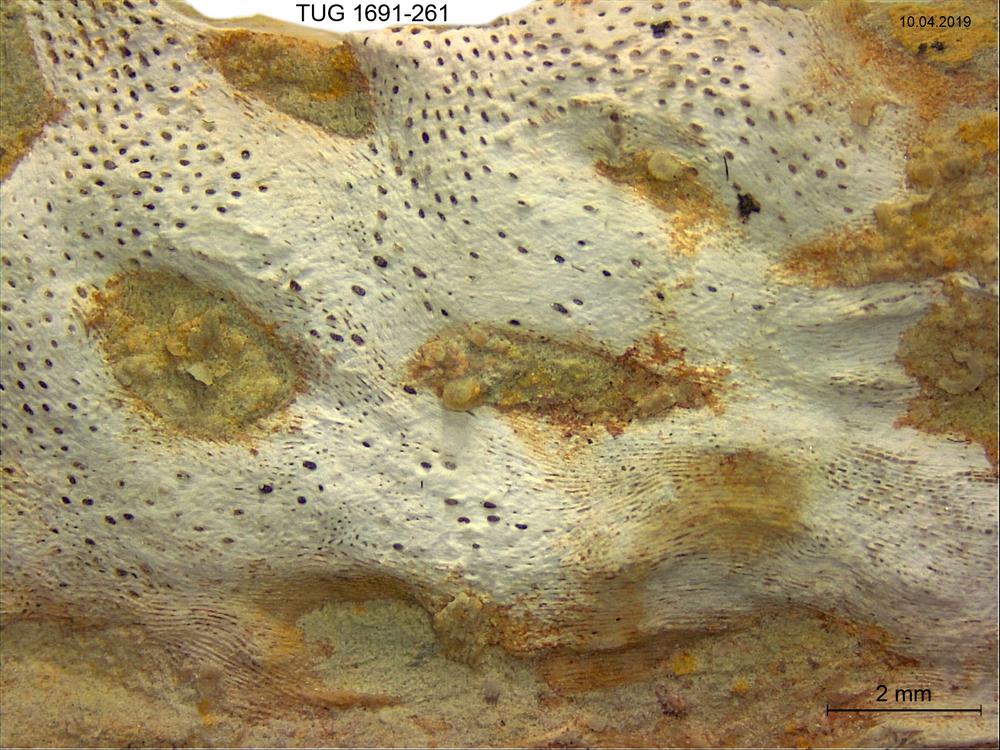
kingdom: Animalia
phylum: Bryozoa
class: Stenolaemata
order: Cryptostomida
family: Escharoporidae
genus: Graptodictya
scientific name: Graptodictya proava
